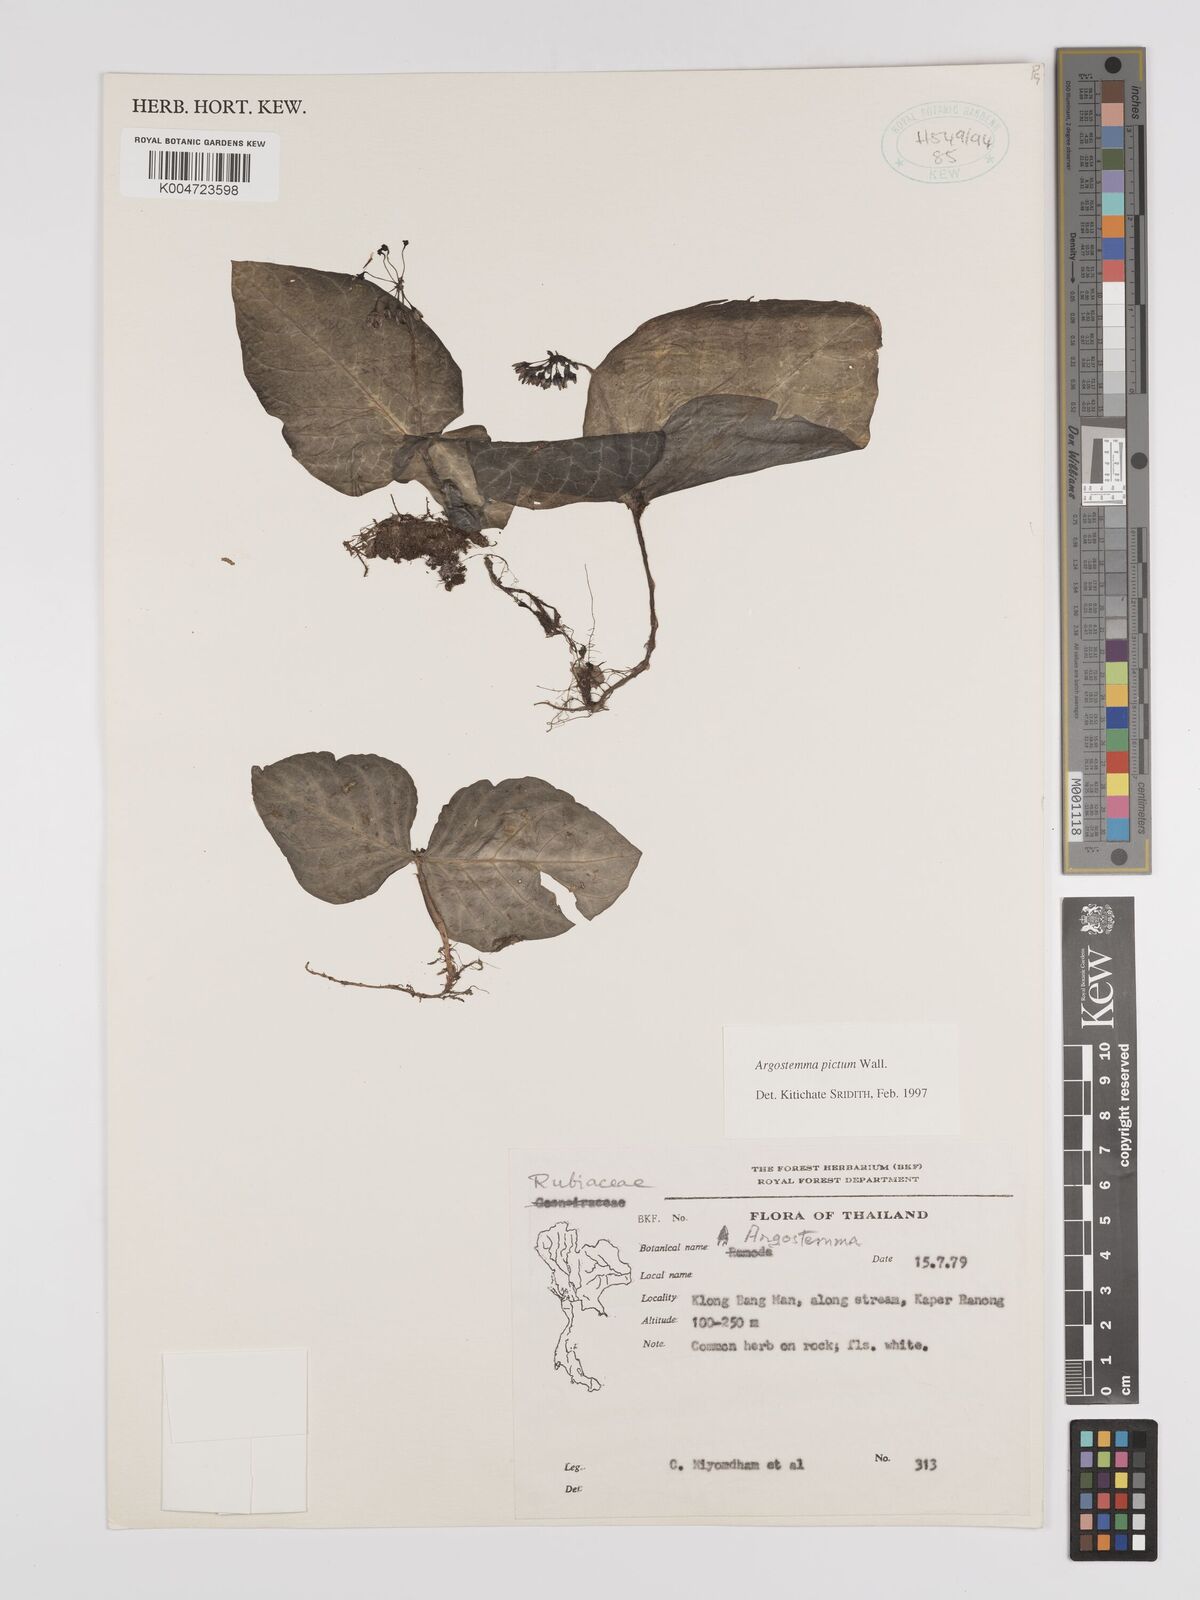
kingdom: Plantae
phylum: Tracheophyta
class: Magnoliopsida
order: Gentianales
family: Rubiaceae
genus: Argostemma
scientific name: Argostemma
